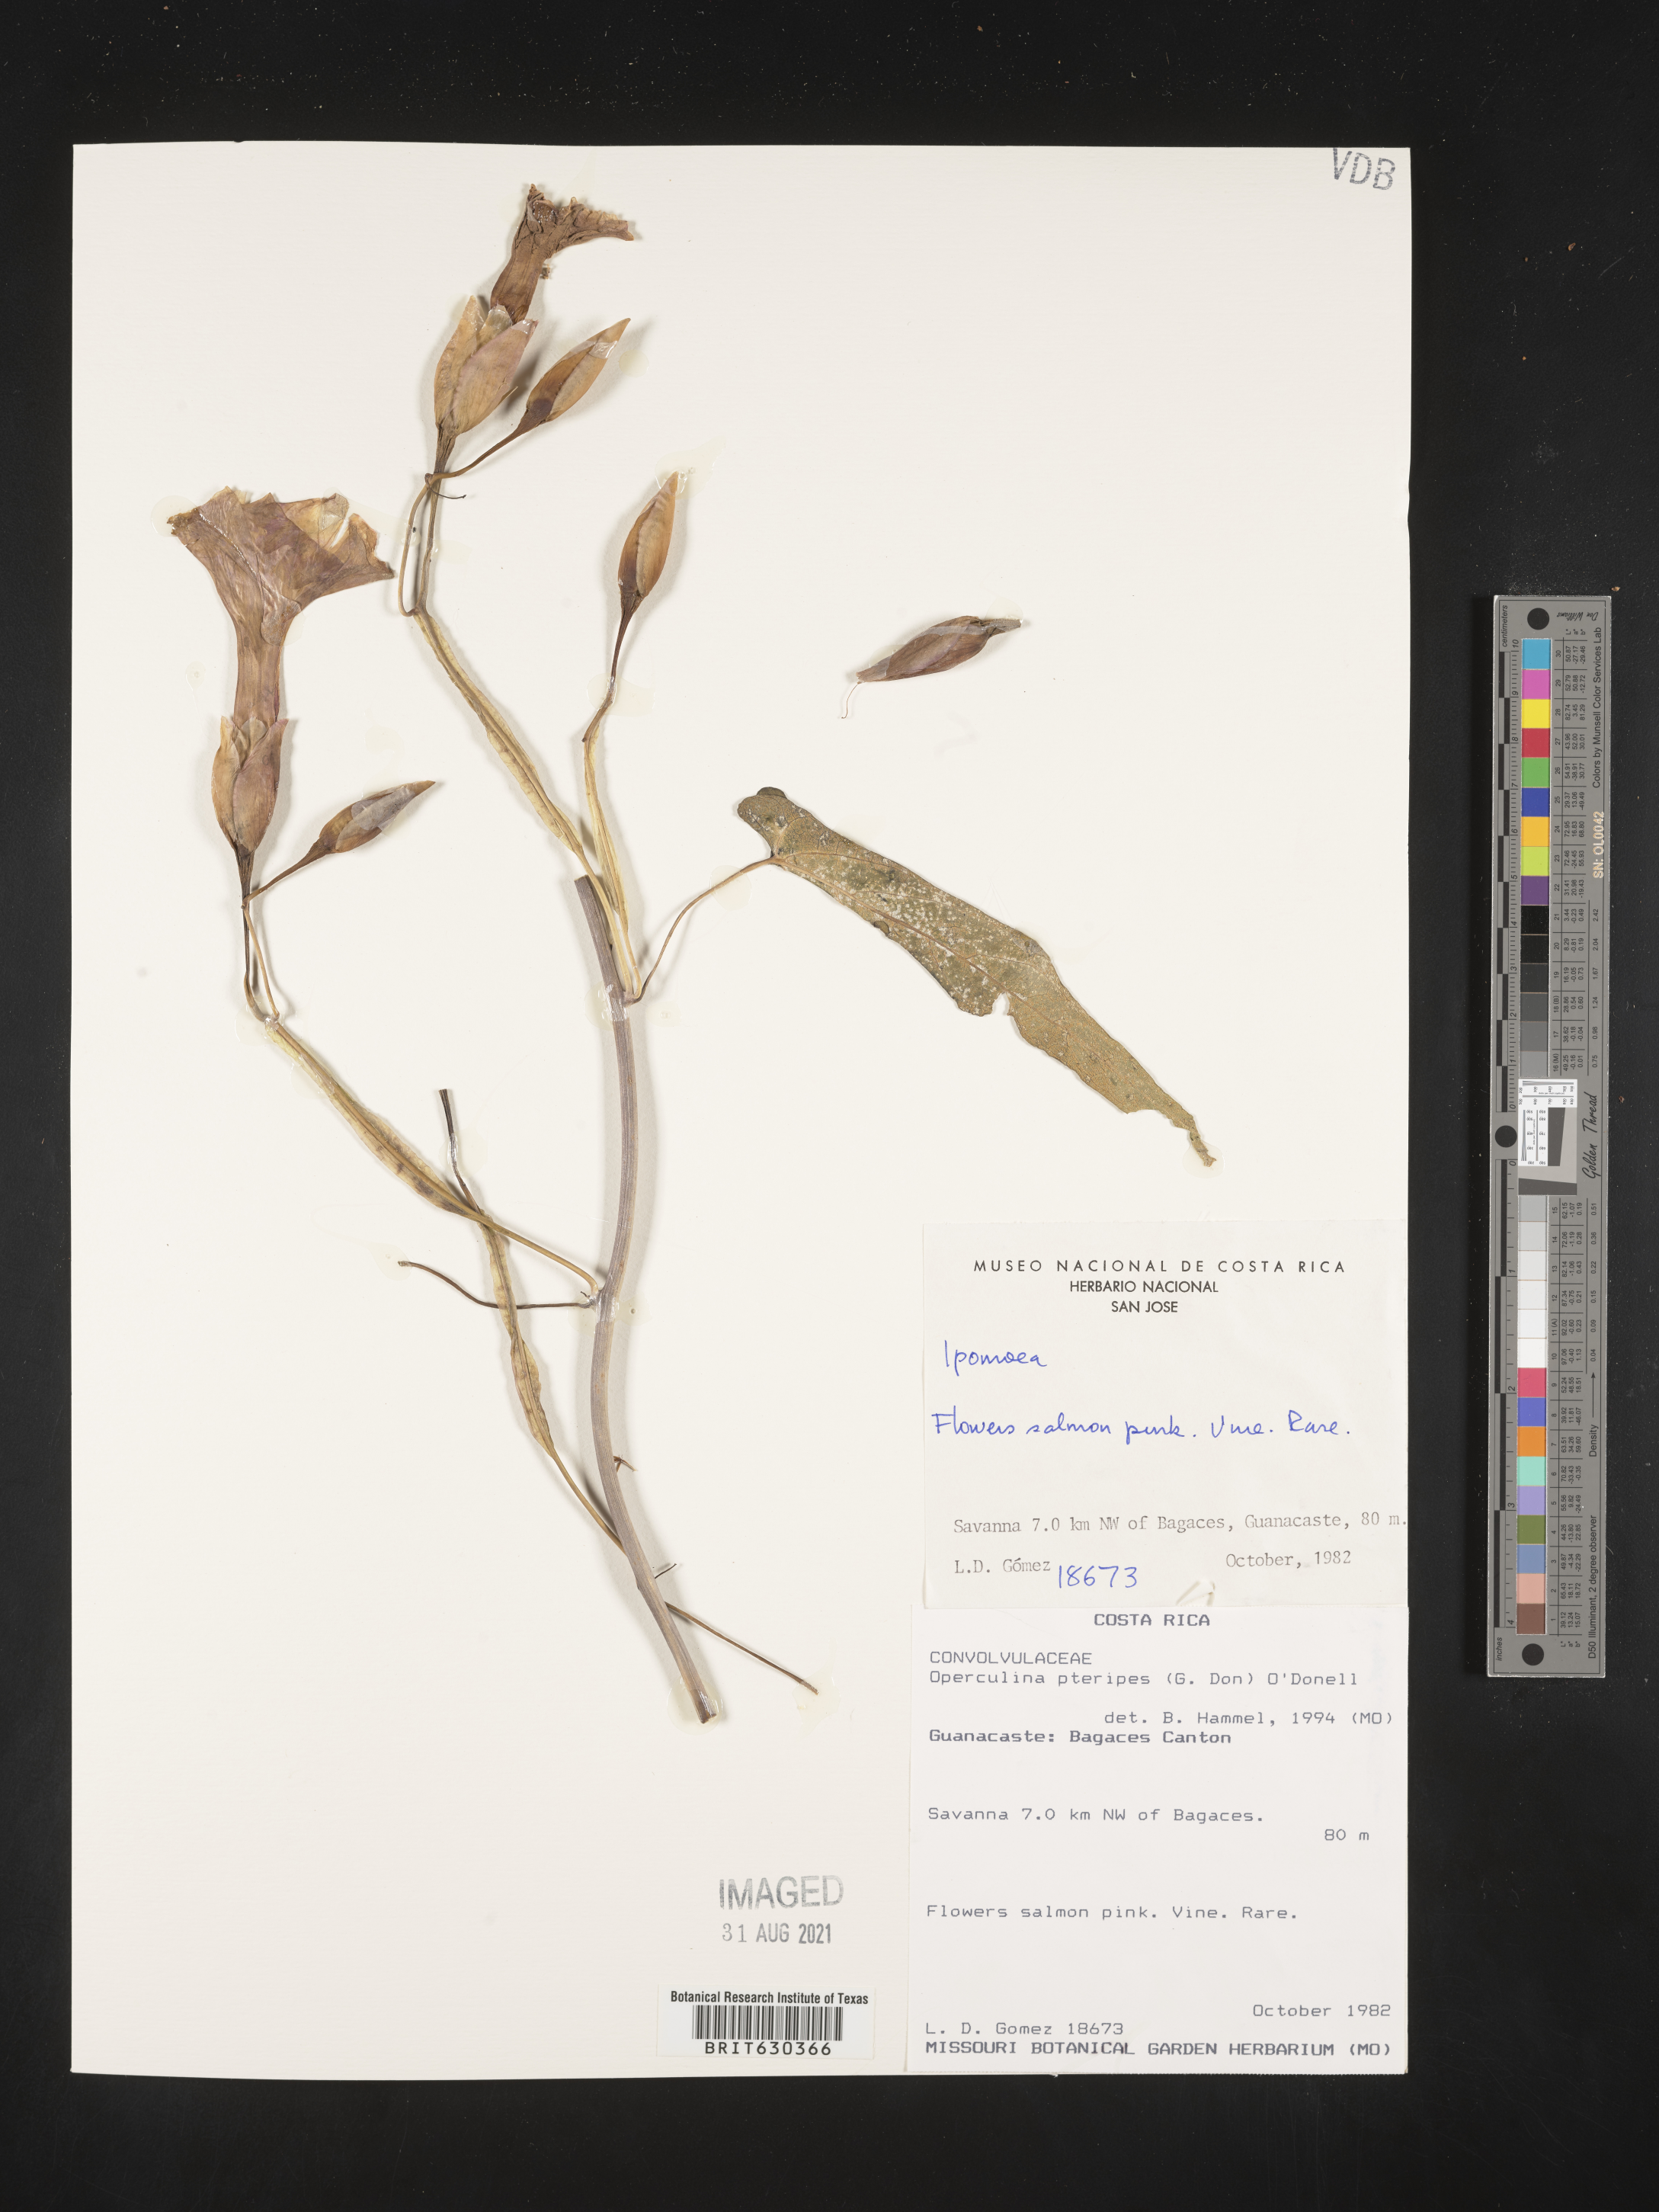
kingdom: Plantae
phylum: Tracheophyta
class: Magnoliopsida
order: Solanales
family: Convolvulaceae
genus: Operculina
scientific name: Operculina pteripes
